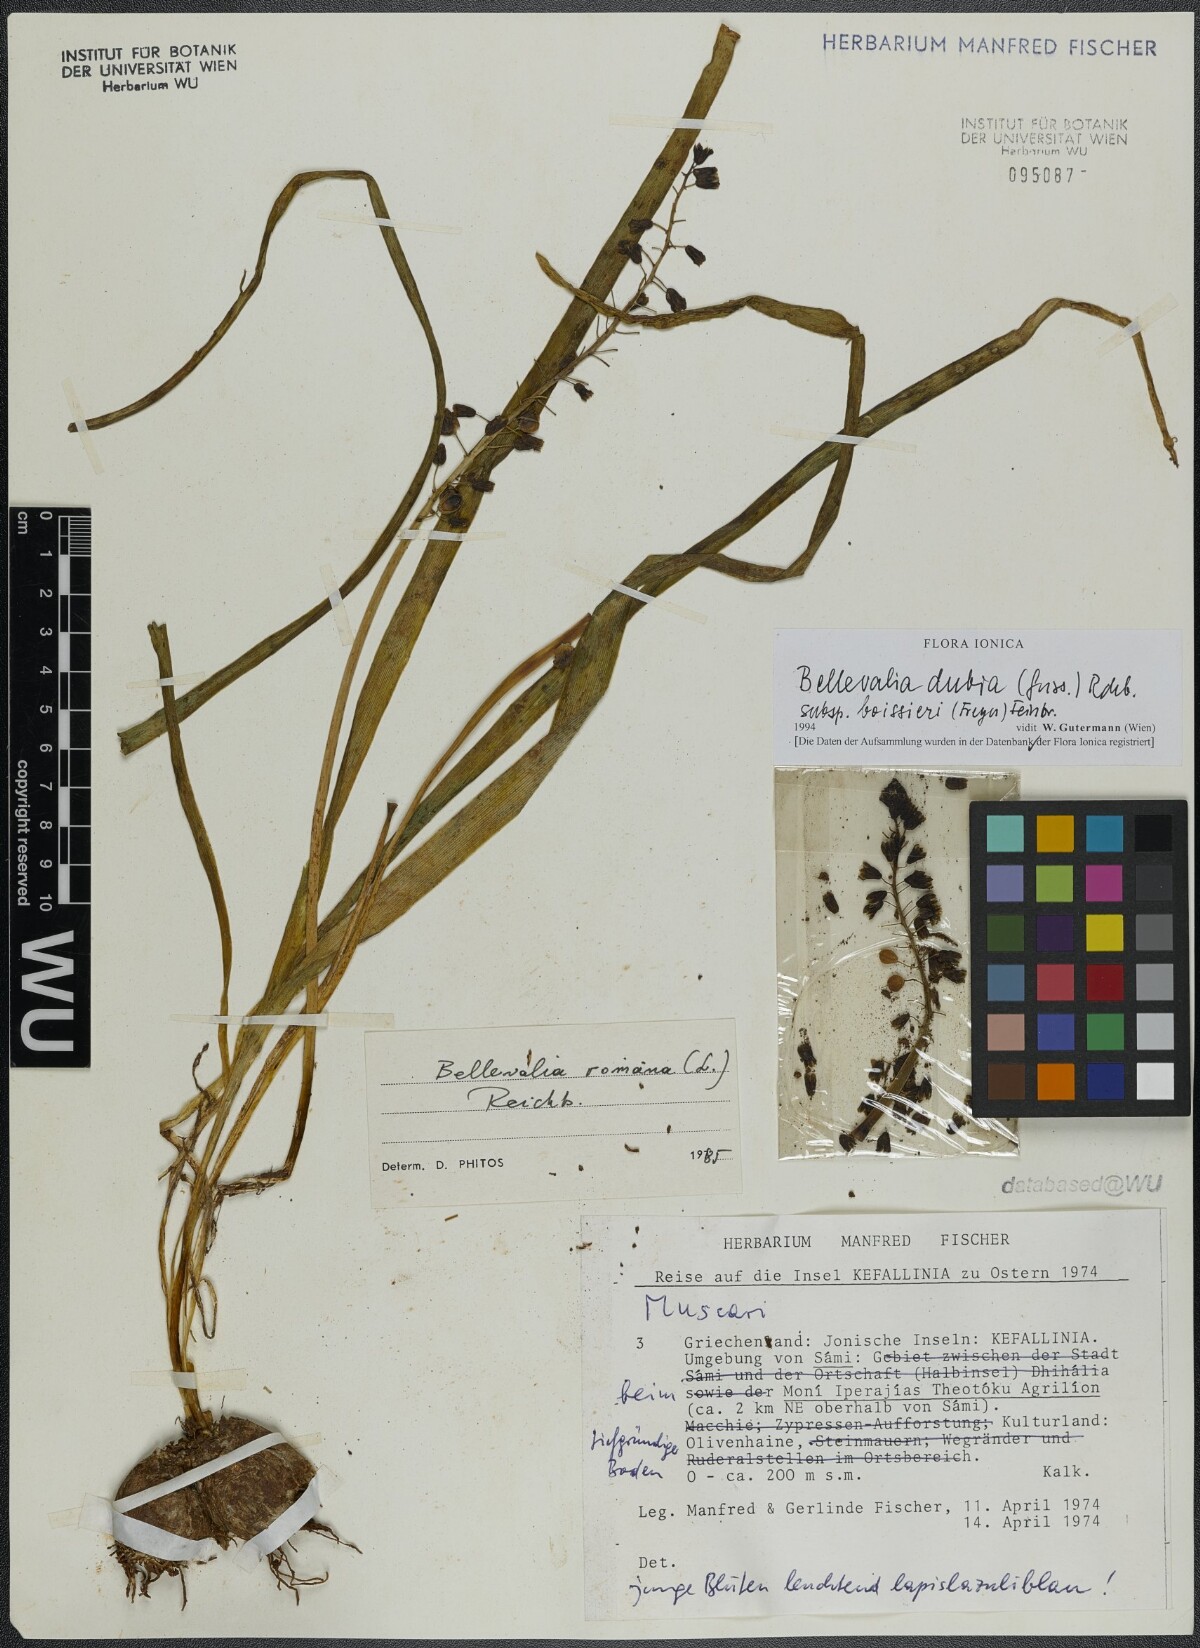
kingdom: Plantae
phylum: Tracheophyta
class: Liliopsida
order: Asparagales
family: Asparagaceae
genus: Bellevalia
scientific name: Bellevalia dubia
